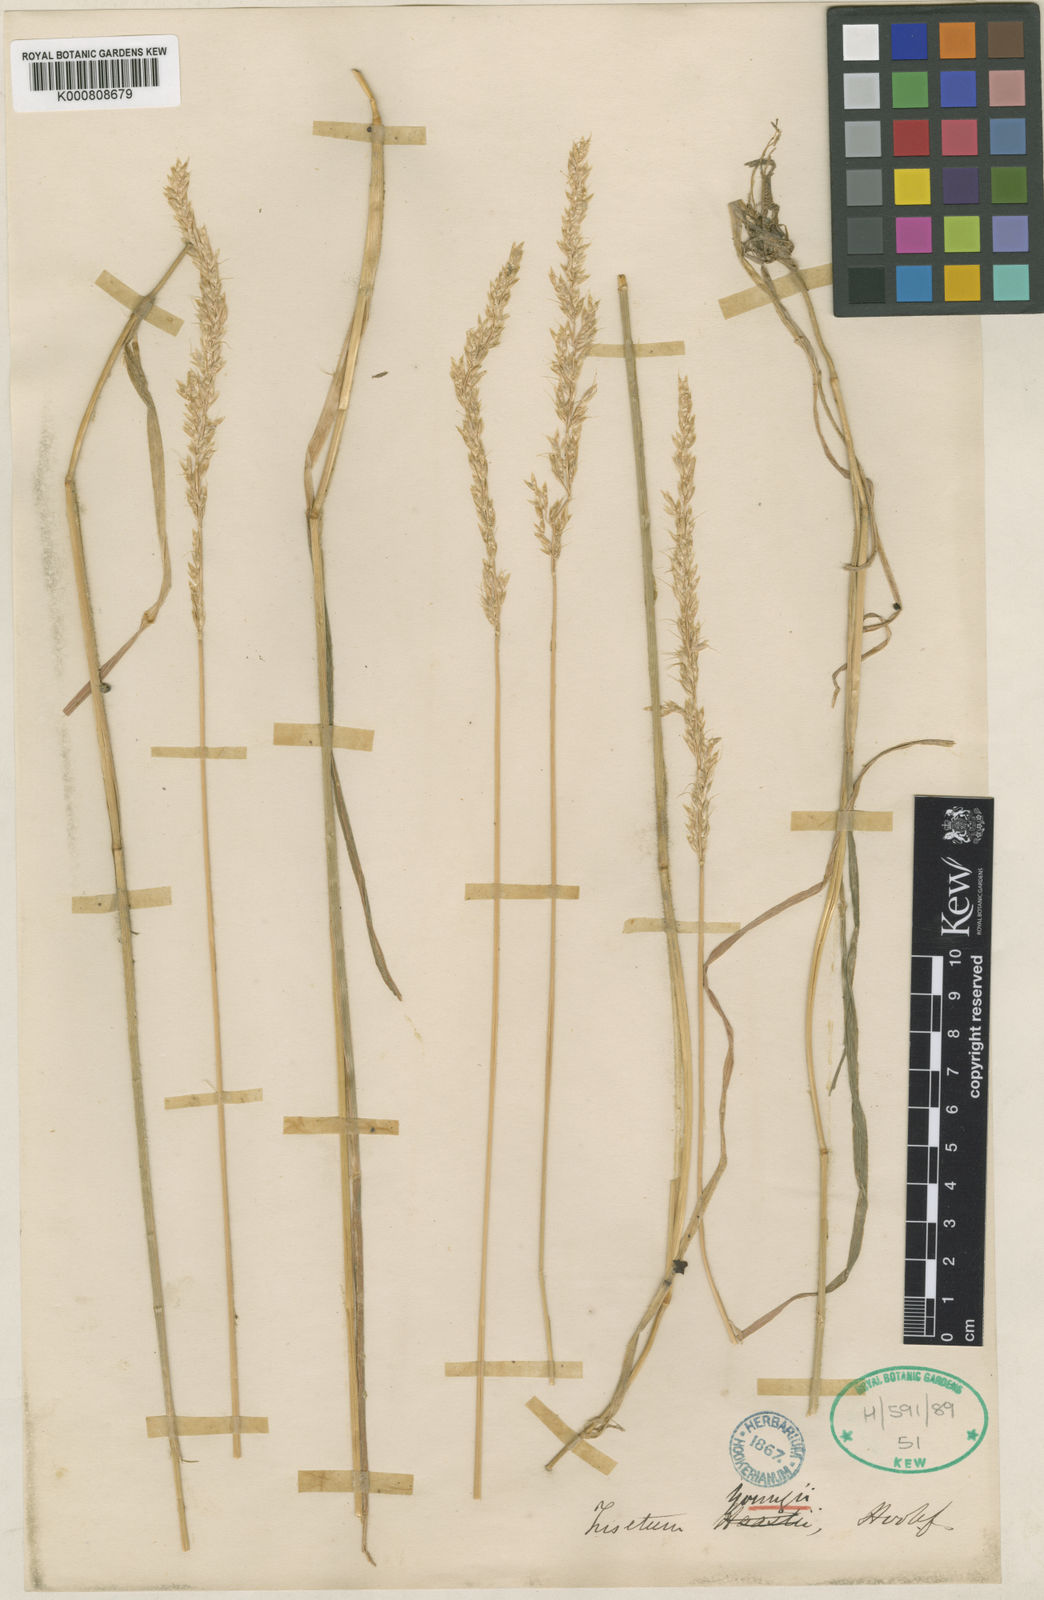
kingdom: Plantae
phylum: Tracheophyta
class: Liliopsida
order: Poales
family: Poaceae
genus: Koeleria
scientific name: Koeleria youngii
